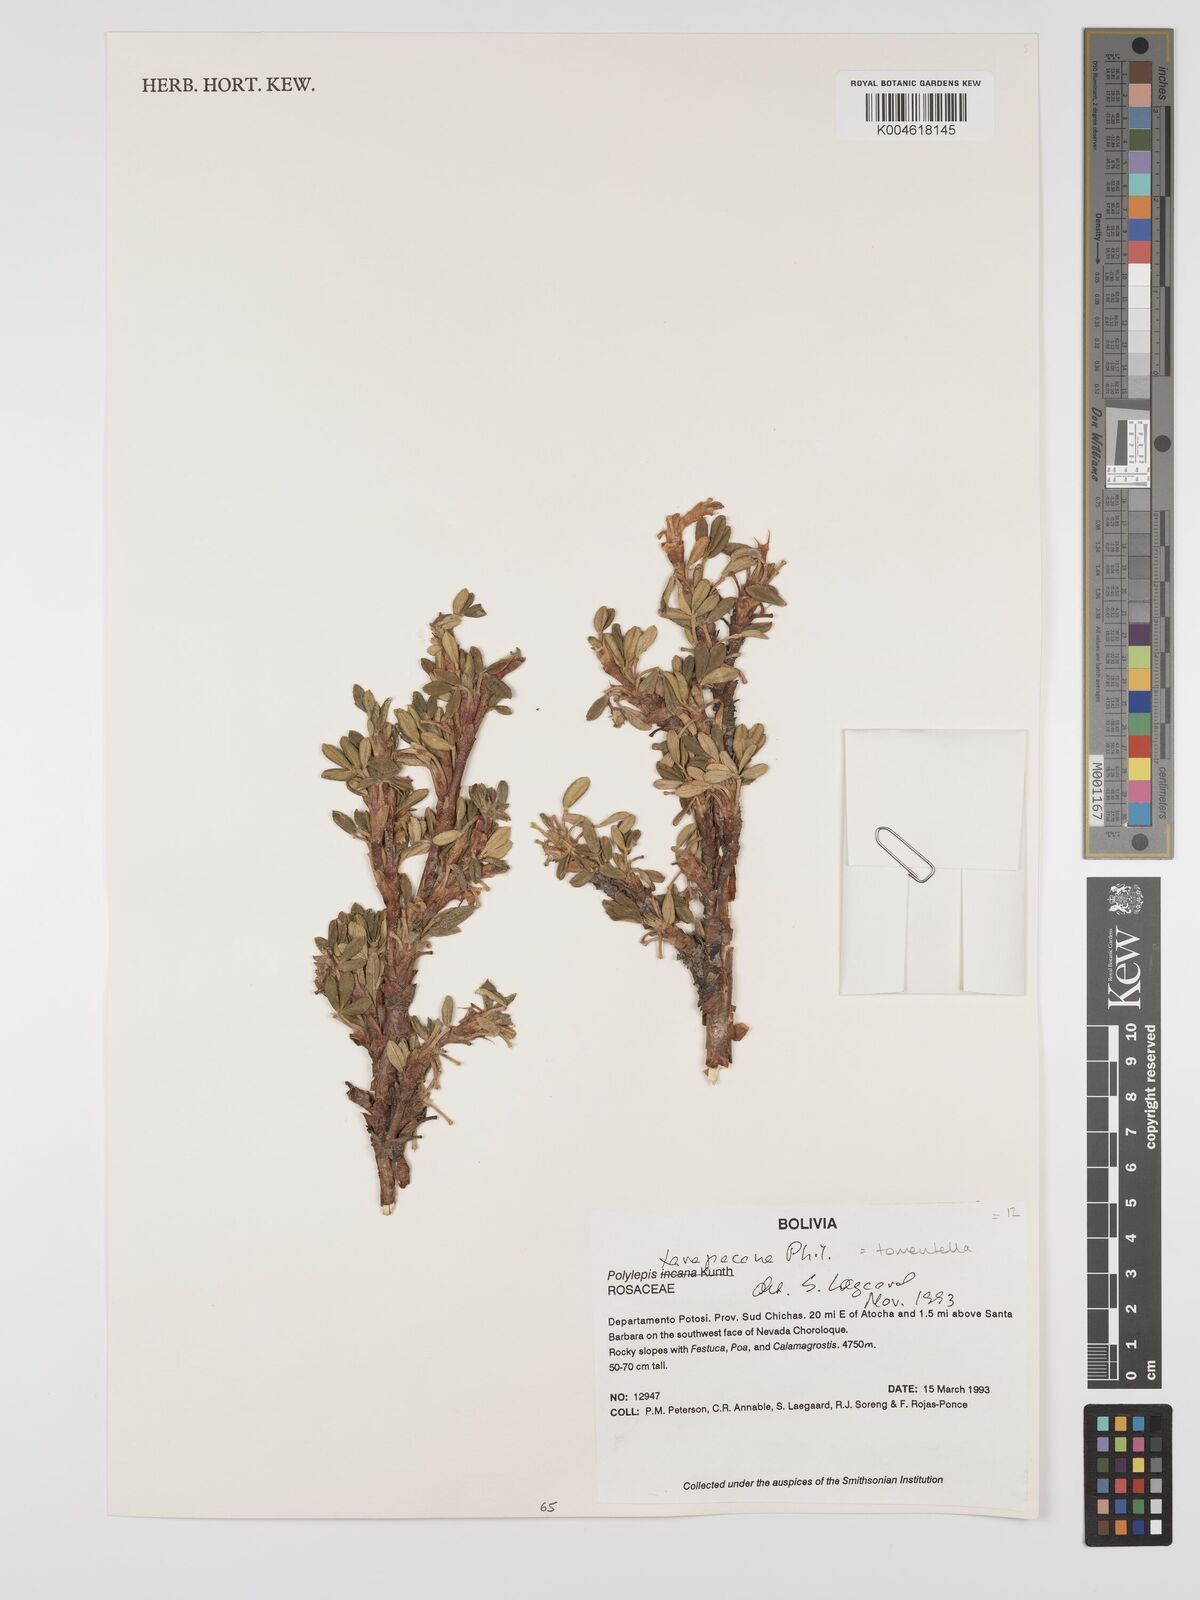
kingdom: Plantae
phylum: Tracheophyta
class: Magnoliopsida
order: Rosales
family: Rosaceae
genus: Polylepis
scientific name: Polylepis tomentella
